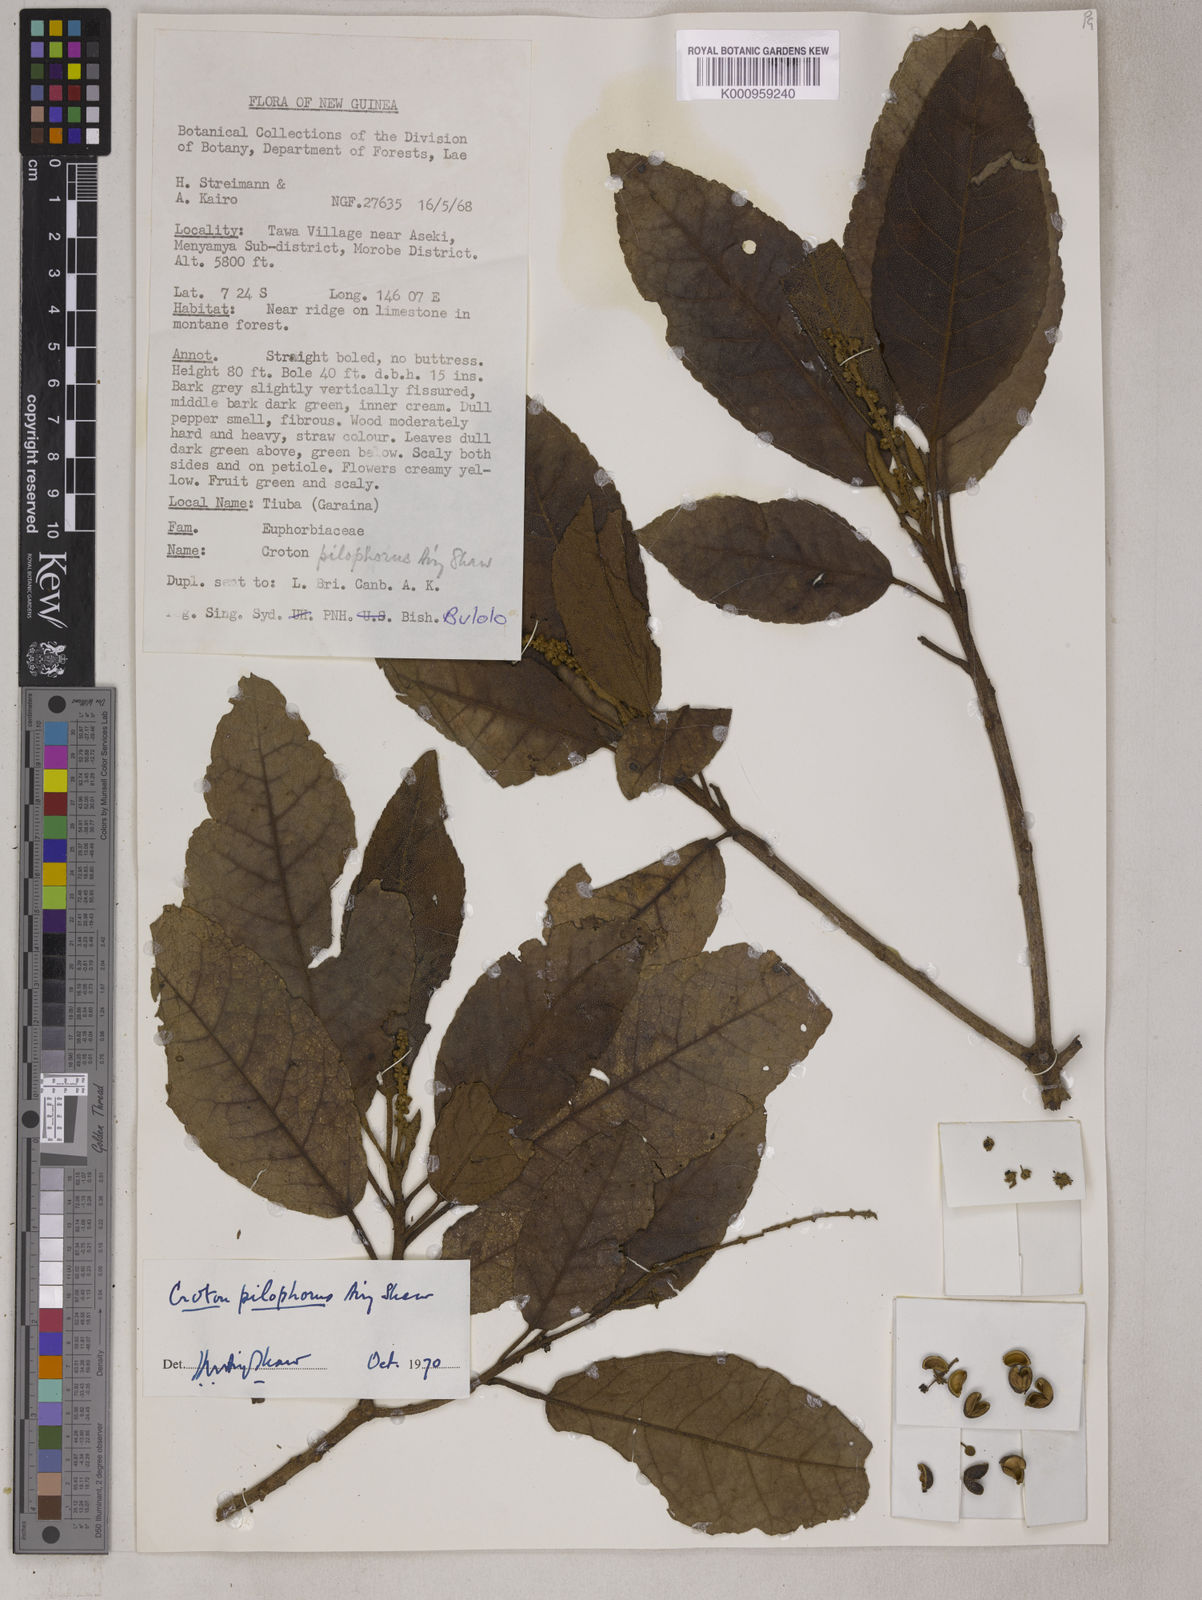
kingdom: Plantae
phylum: Tracheophyta
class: Magnoliopsida
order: Malpighiales
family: Euphorbiaceae
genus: Croton
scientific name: Croton pilophorus
